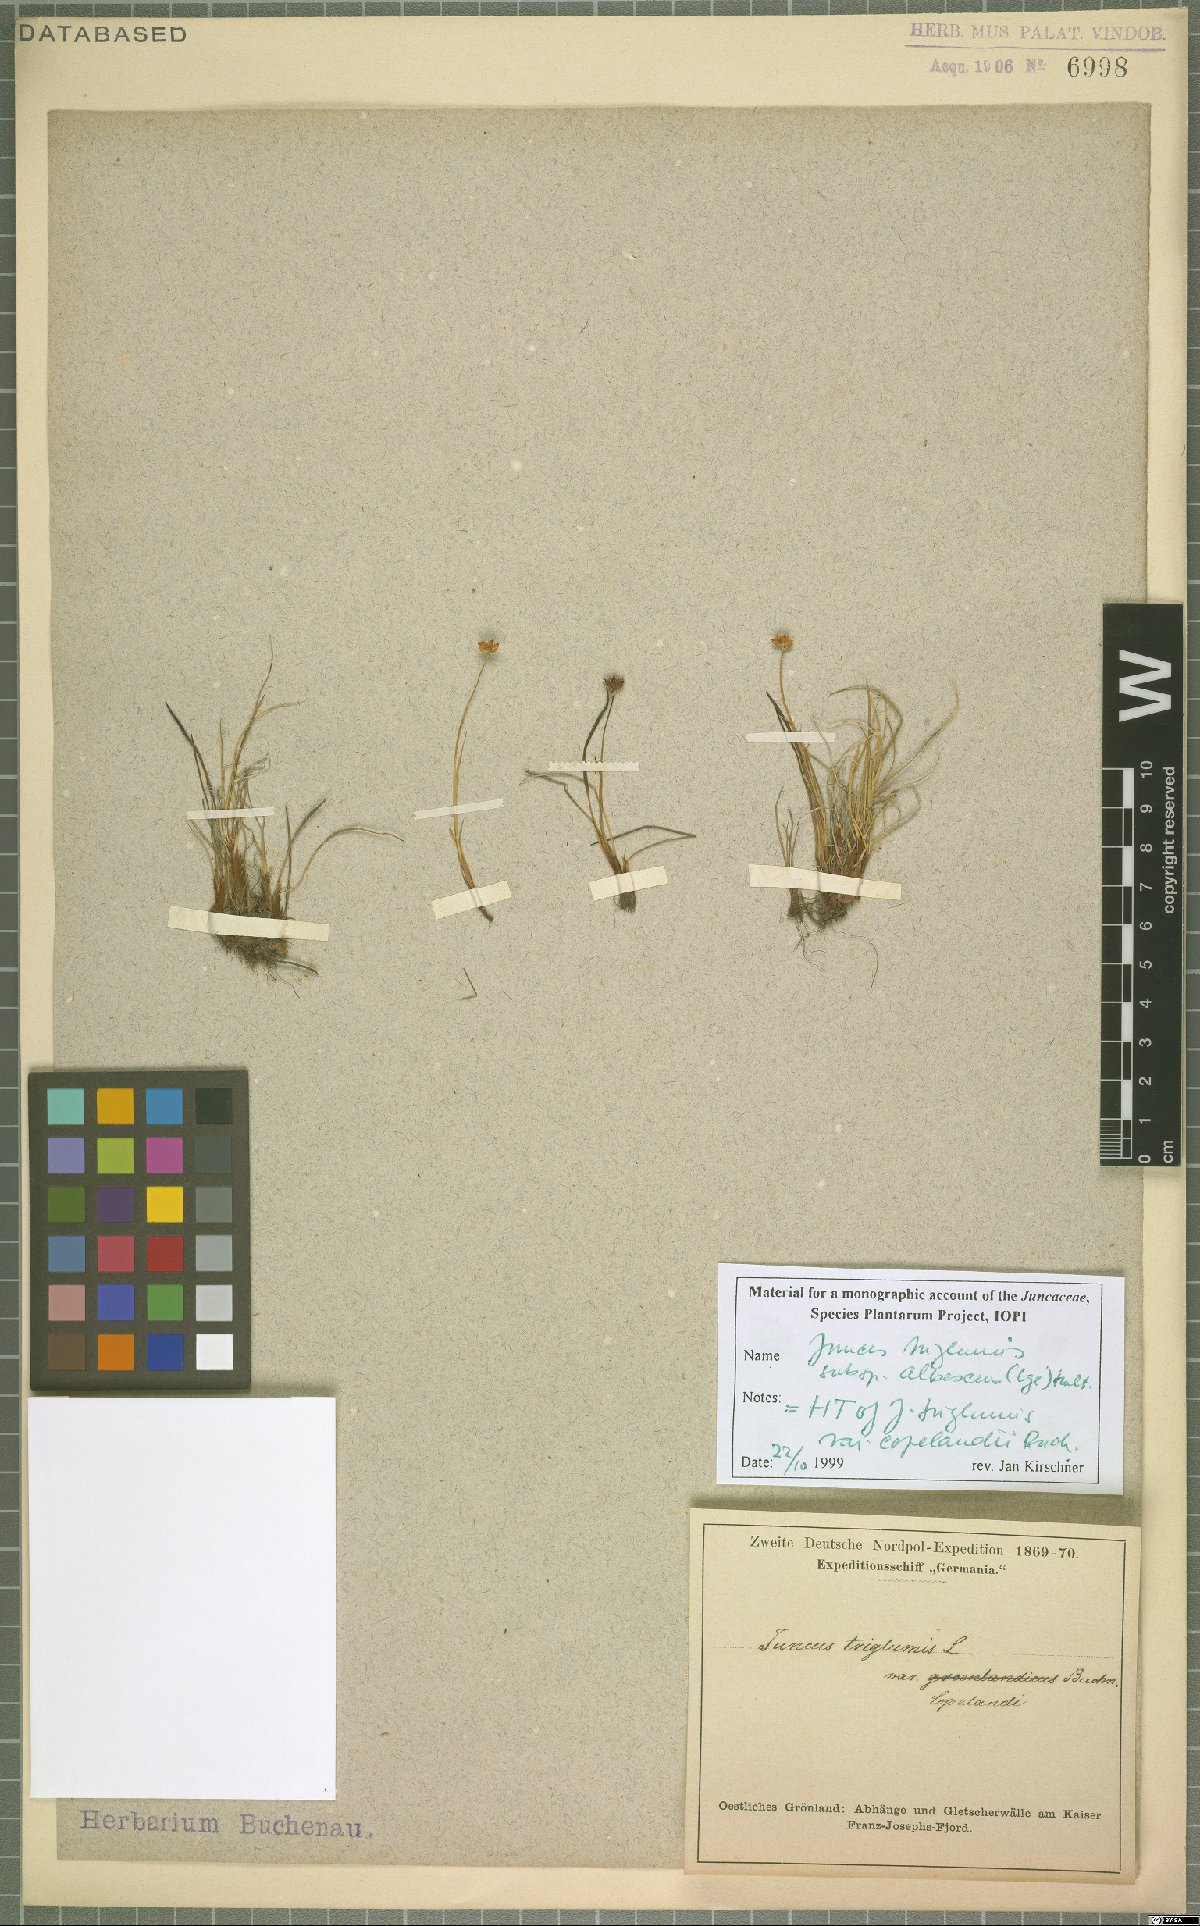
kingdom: Plantae
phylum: Tracheophyta
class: Liliopsida
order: Poales
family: Juncaceae
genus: Juncus
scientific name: Juncus albescens
